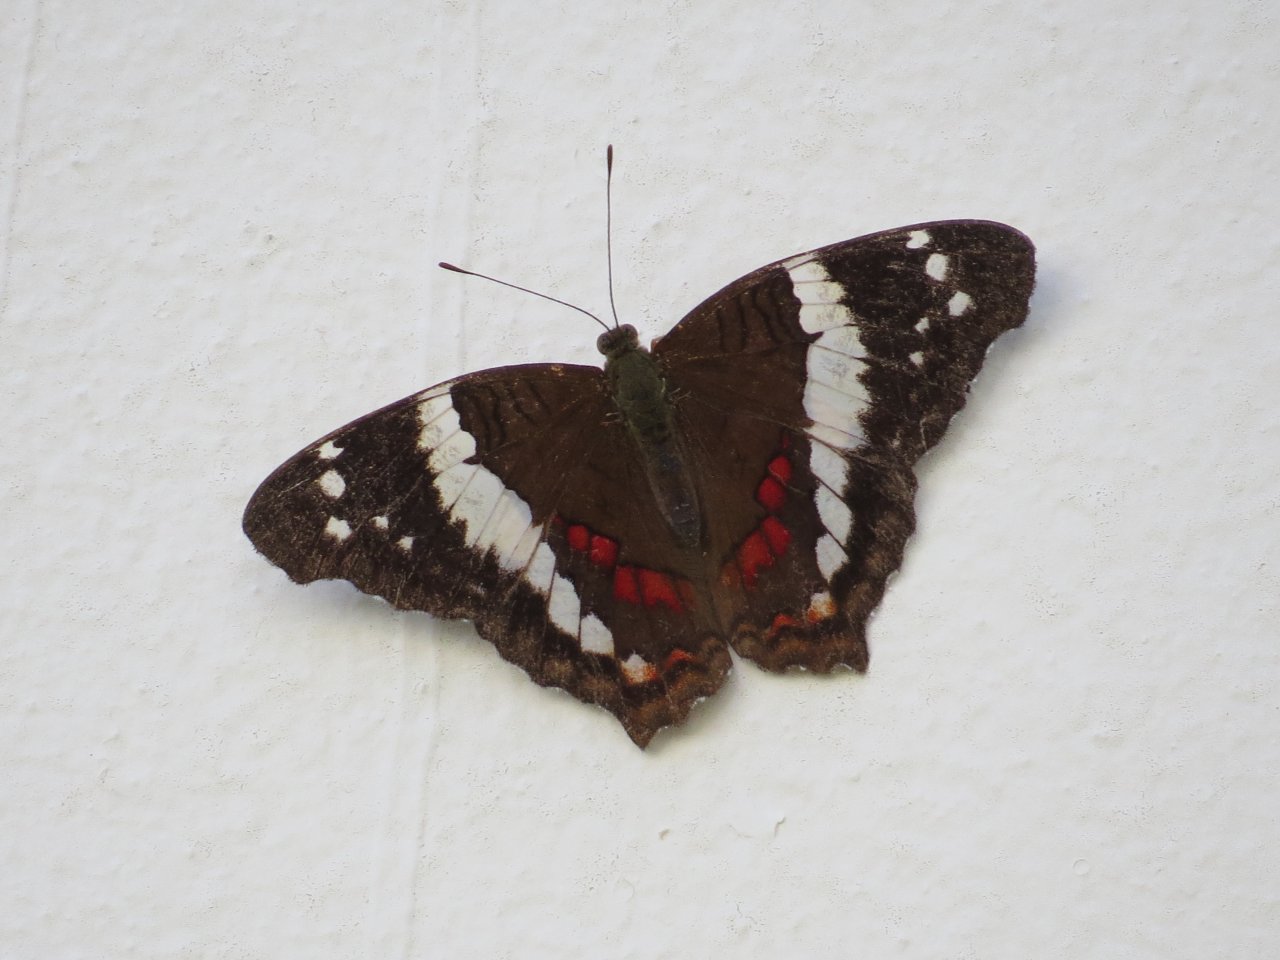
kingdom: Animalia
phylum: Arthropoda
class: Insecta
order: Lepidoptera
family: Nymphalidae
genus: Anartia
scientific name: Anartia fatima
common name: Banded Peacock
